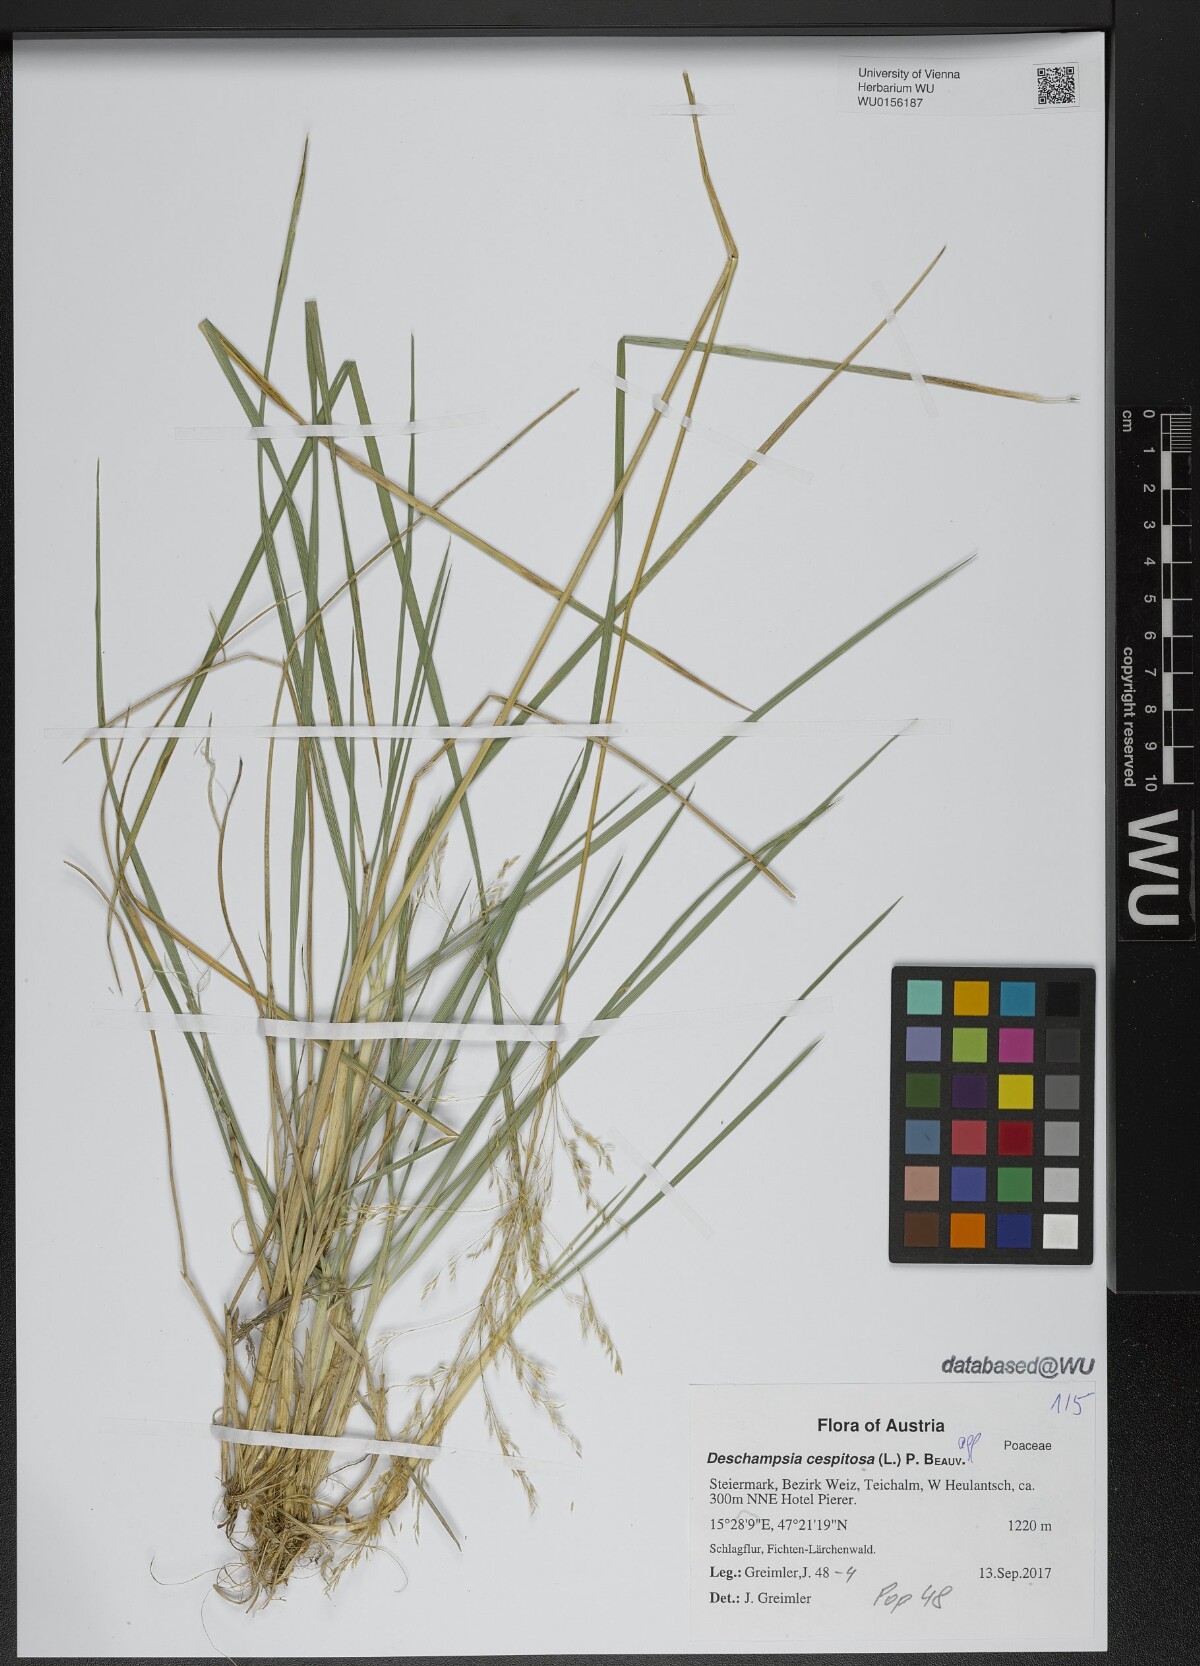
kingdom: Plantae
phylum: Tracheophyta
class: Liliopsida
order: Poales
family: Poaceae
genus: Deschampsia
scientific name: Deschampsia cespitosa
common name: Tufted hair-grass
